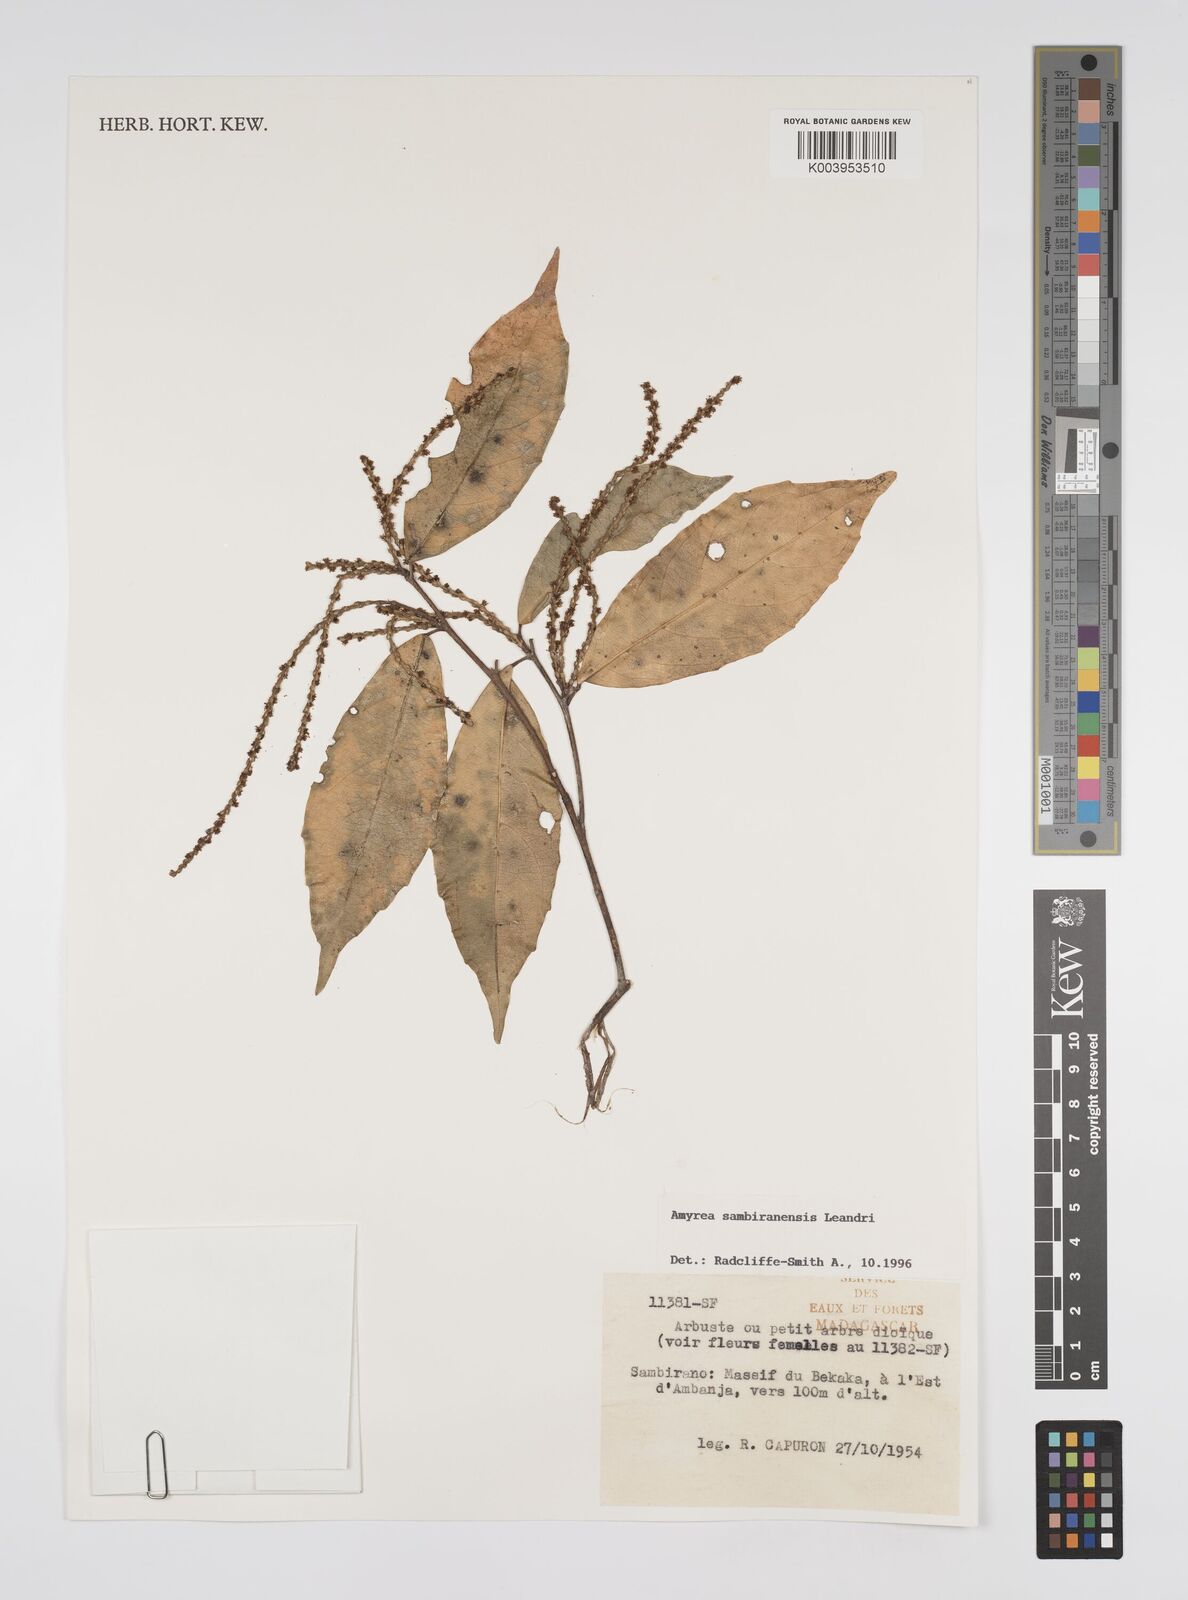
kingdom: Plantae
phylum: Tracheophyta
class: Magnoliopsida
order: Malpighiales
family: Euphorbiaceae
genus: Amyrea
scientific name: Amyrea sambiranensis
